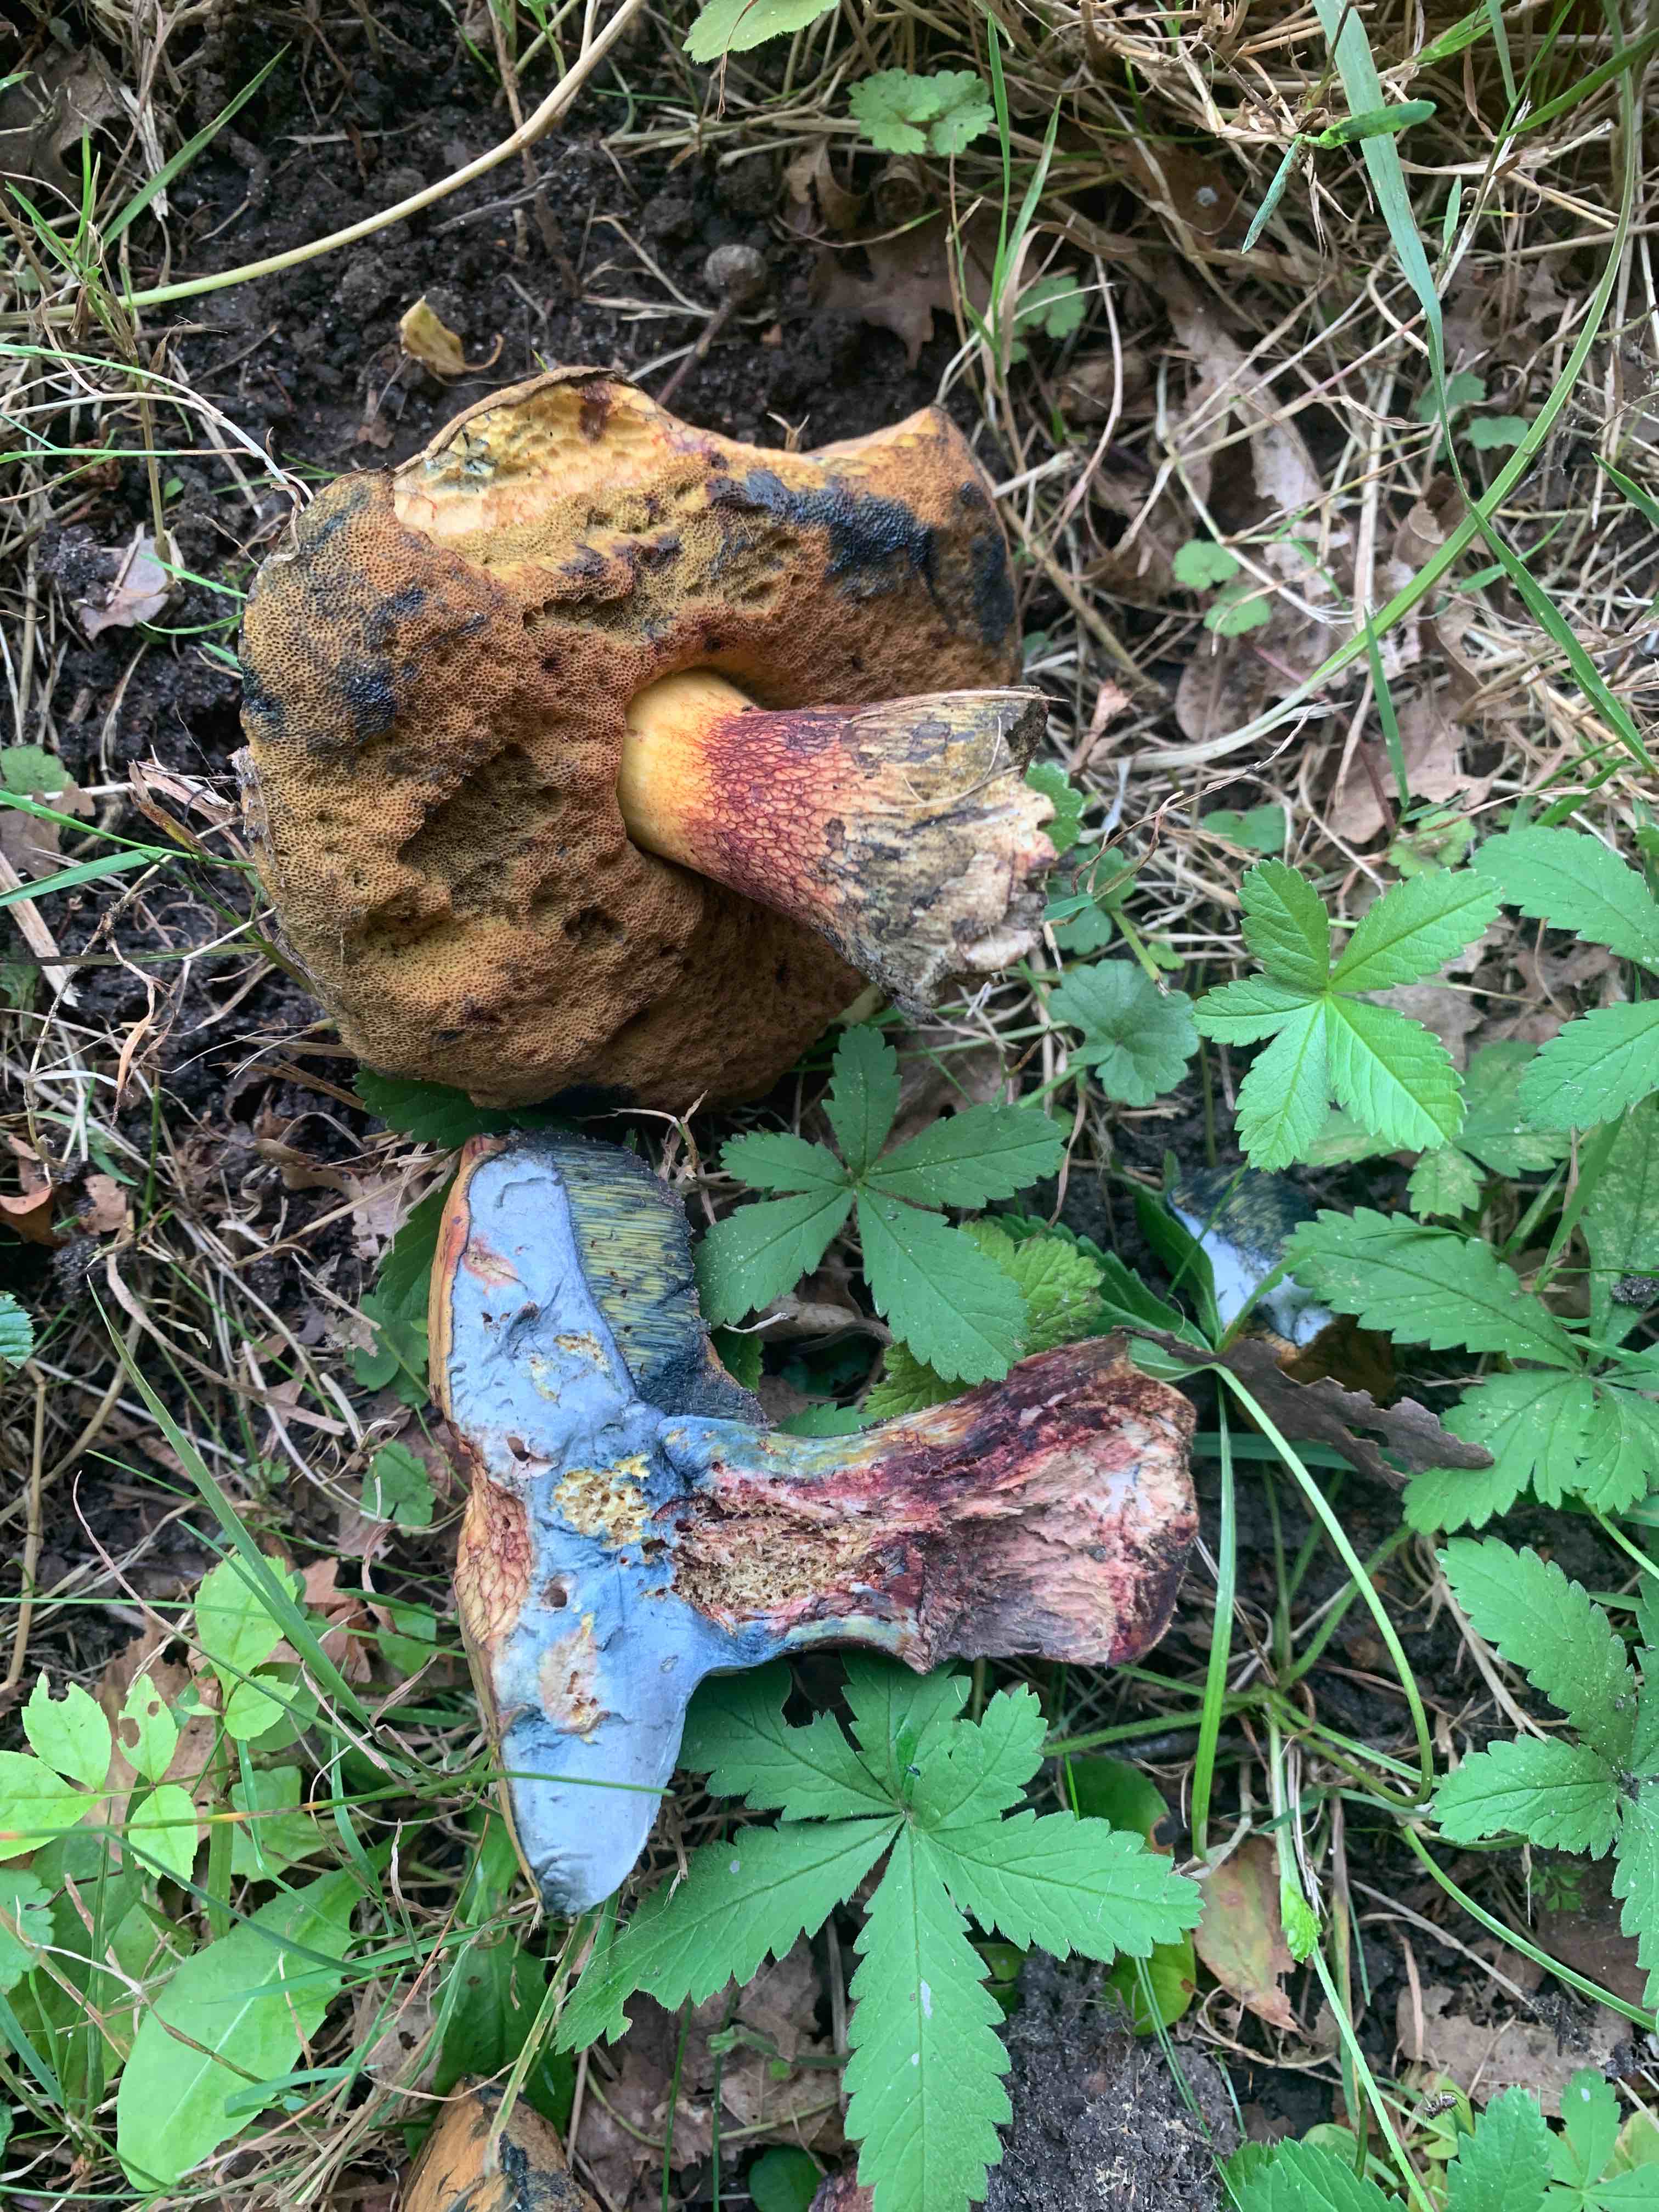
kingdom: Fungi
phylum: Basidiomycota
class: Agaricomycetes
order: Boletales
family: Boletaceae
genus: Suillellus
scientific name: Suillellus luridus
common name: netstokket indigorørhat
